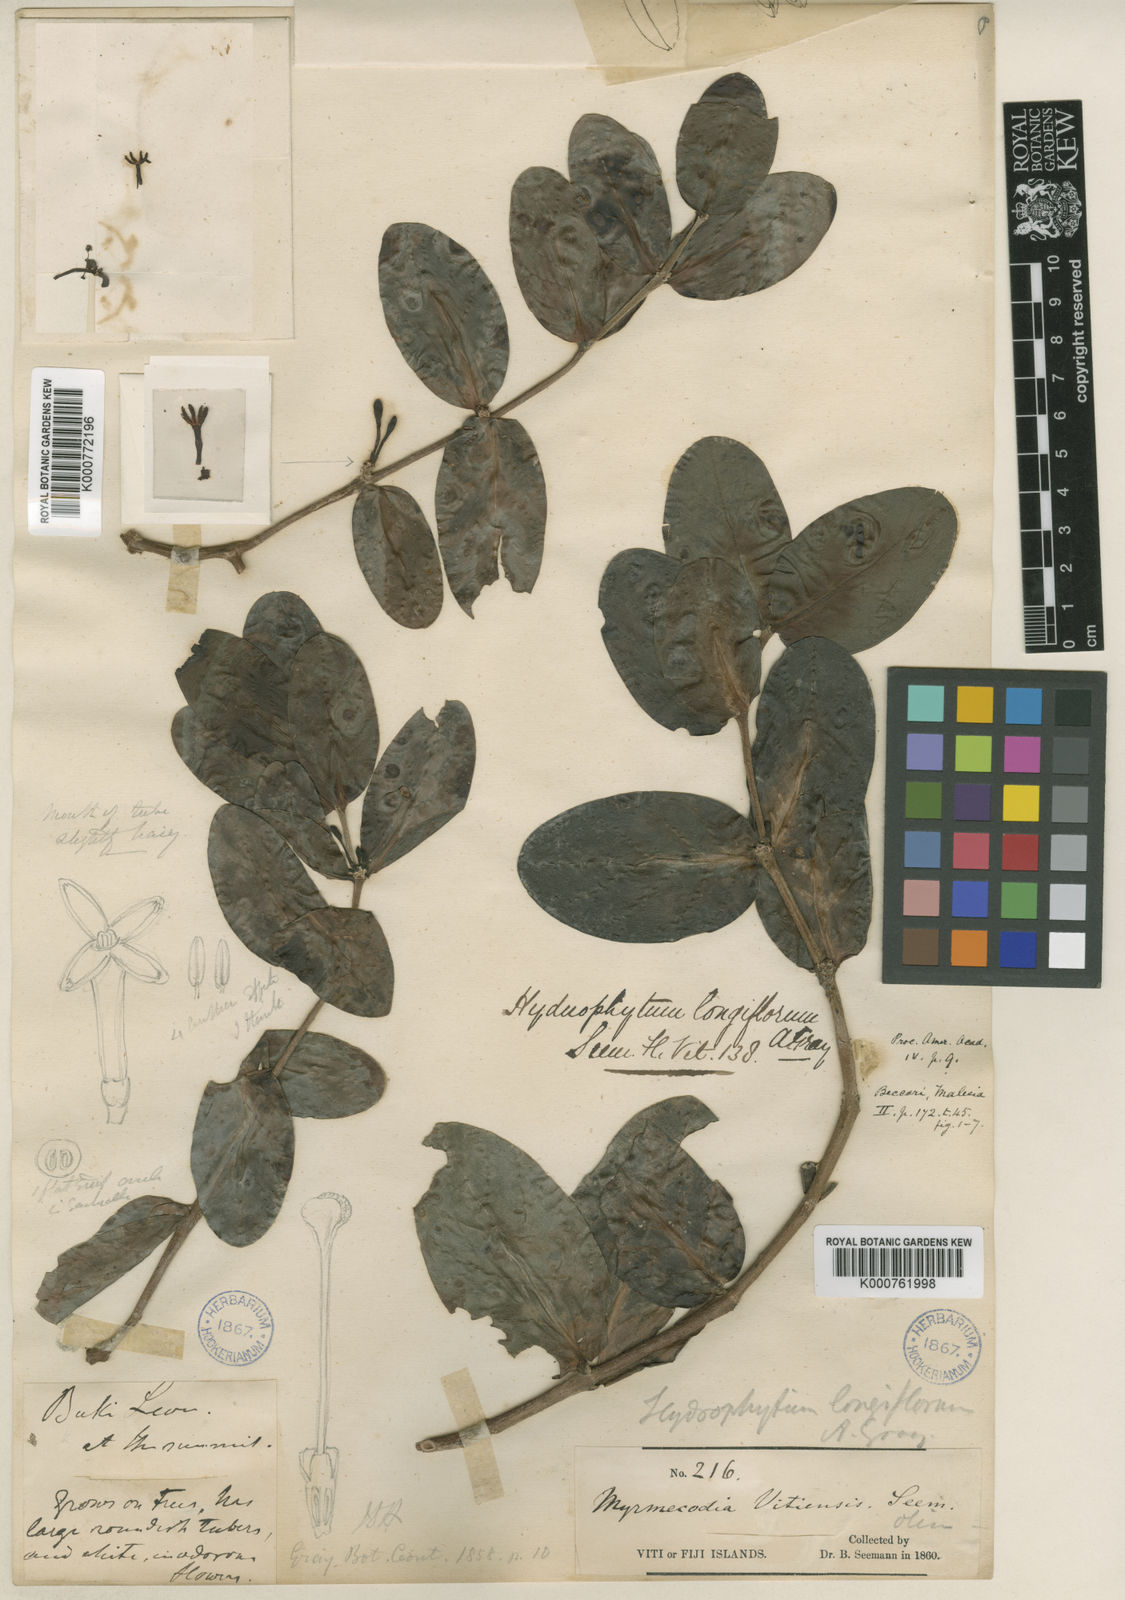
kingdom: Plantae
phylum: Tracheophyta
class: Magnoliopsida
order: Gentianales
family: Rubiaceae
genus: Hydnophytum
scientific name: Hydnophytum longiflorum
